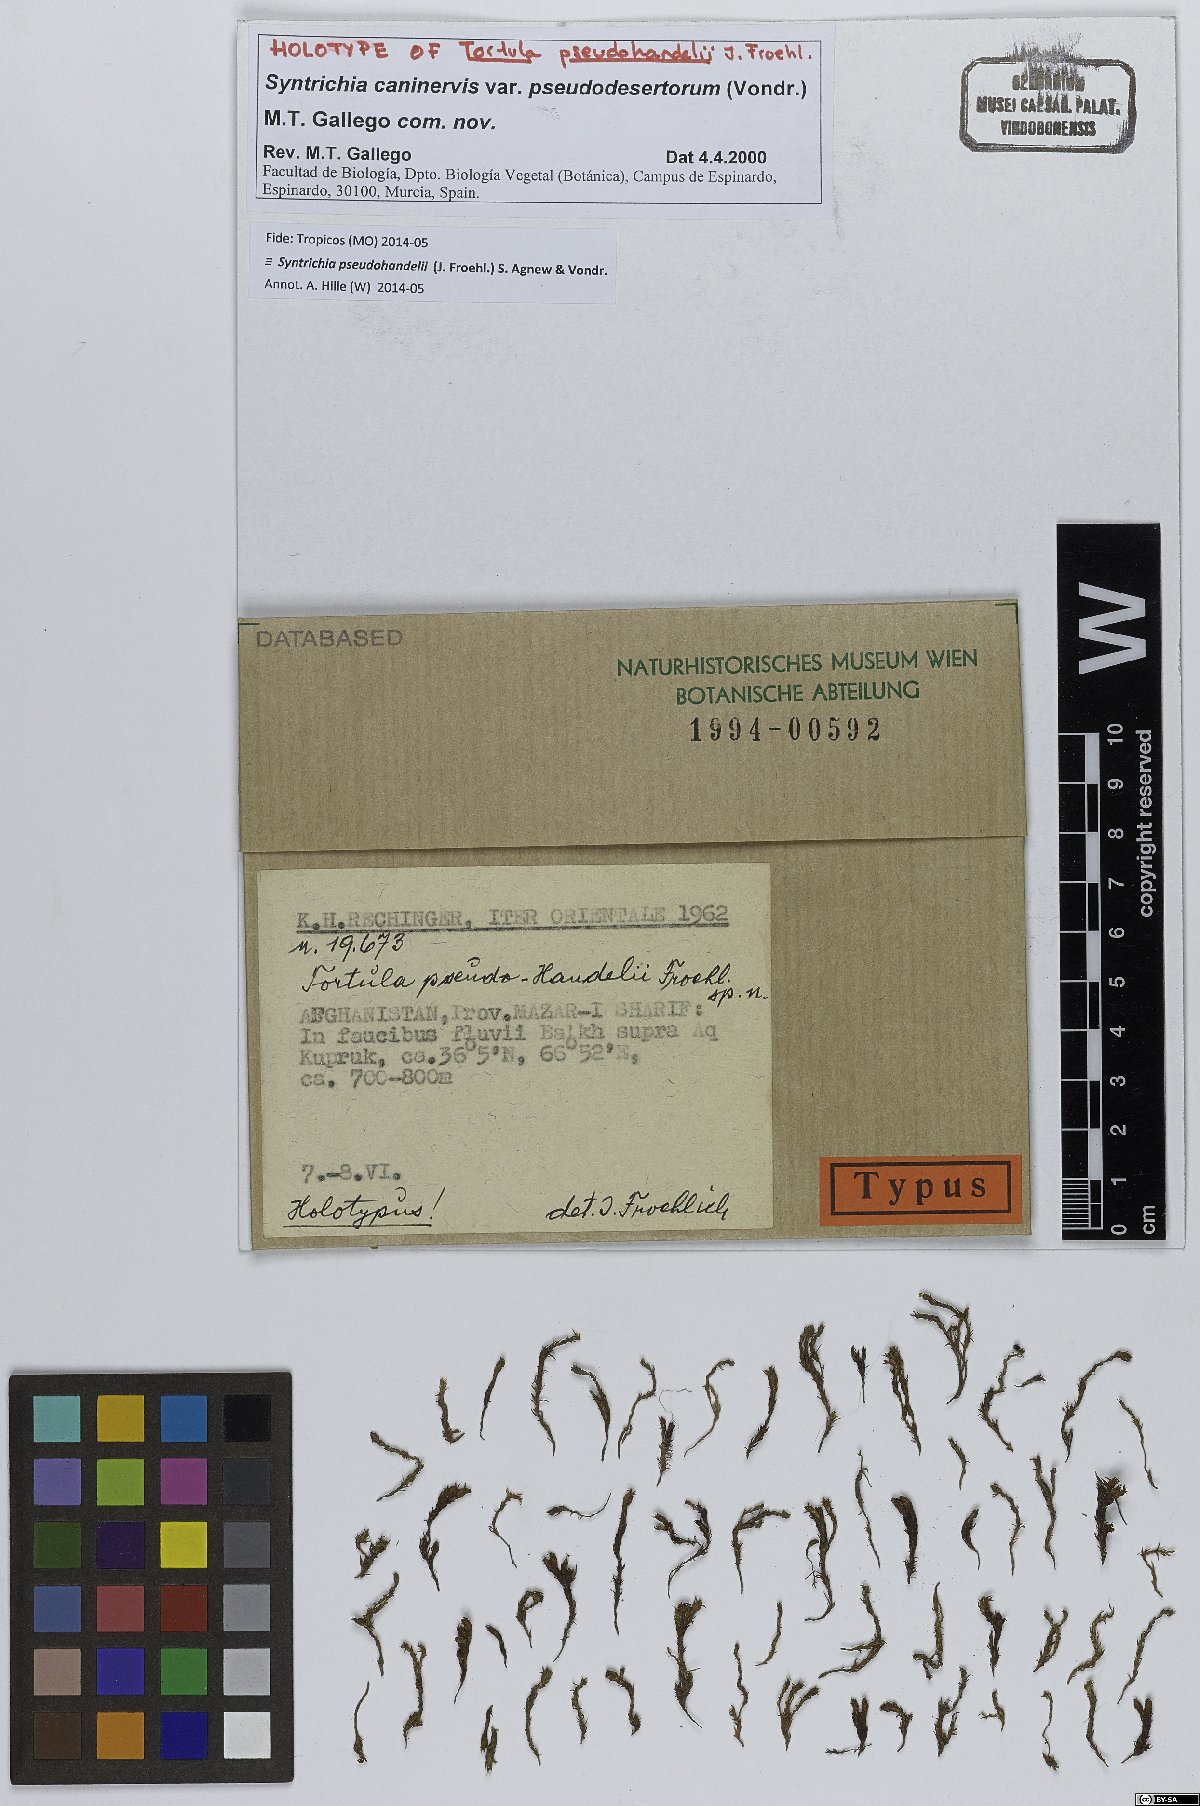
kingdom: Plantae
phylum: Bryophyta
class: Bryopsida
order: Pottiales
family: Pottiaceae
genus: Syntrichia
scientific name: Syntrichia caninervis
